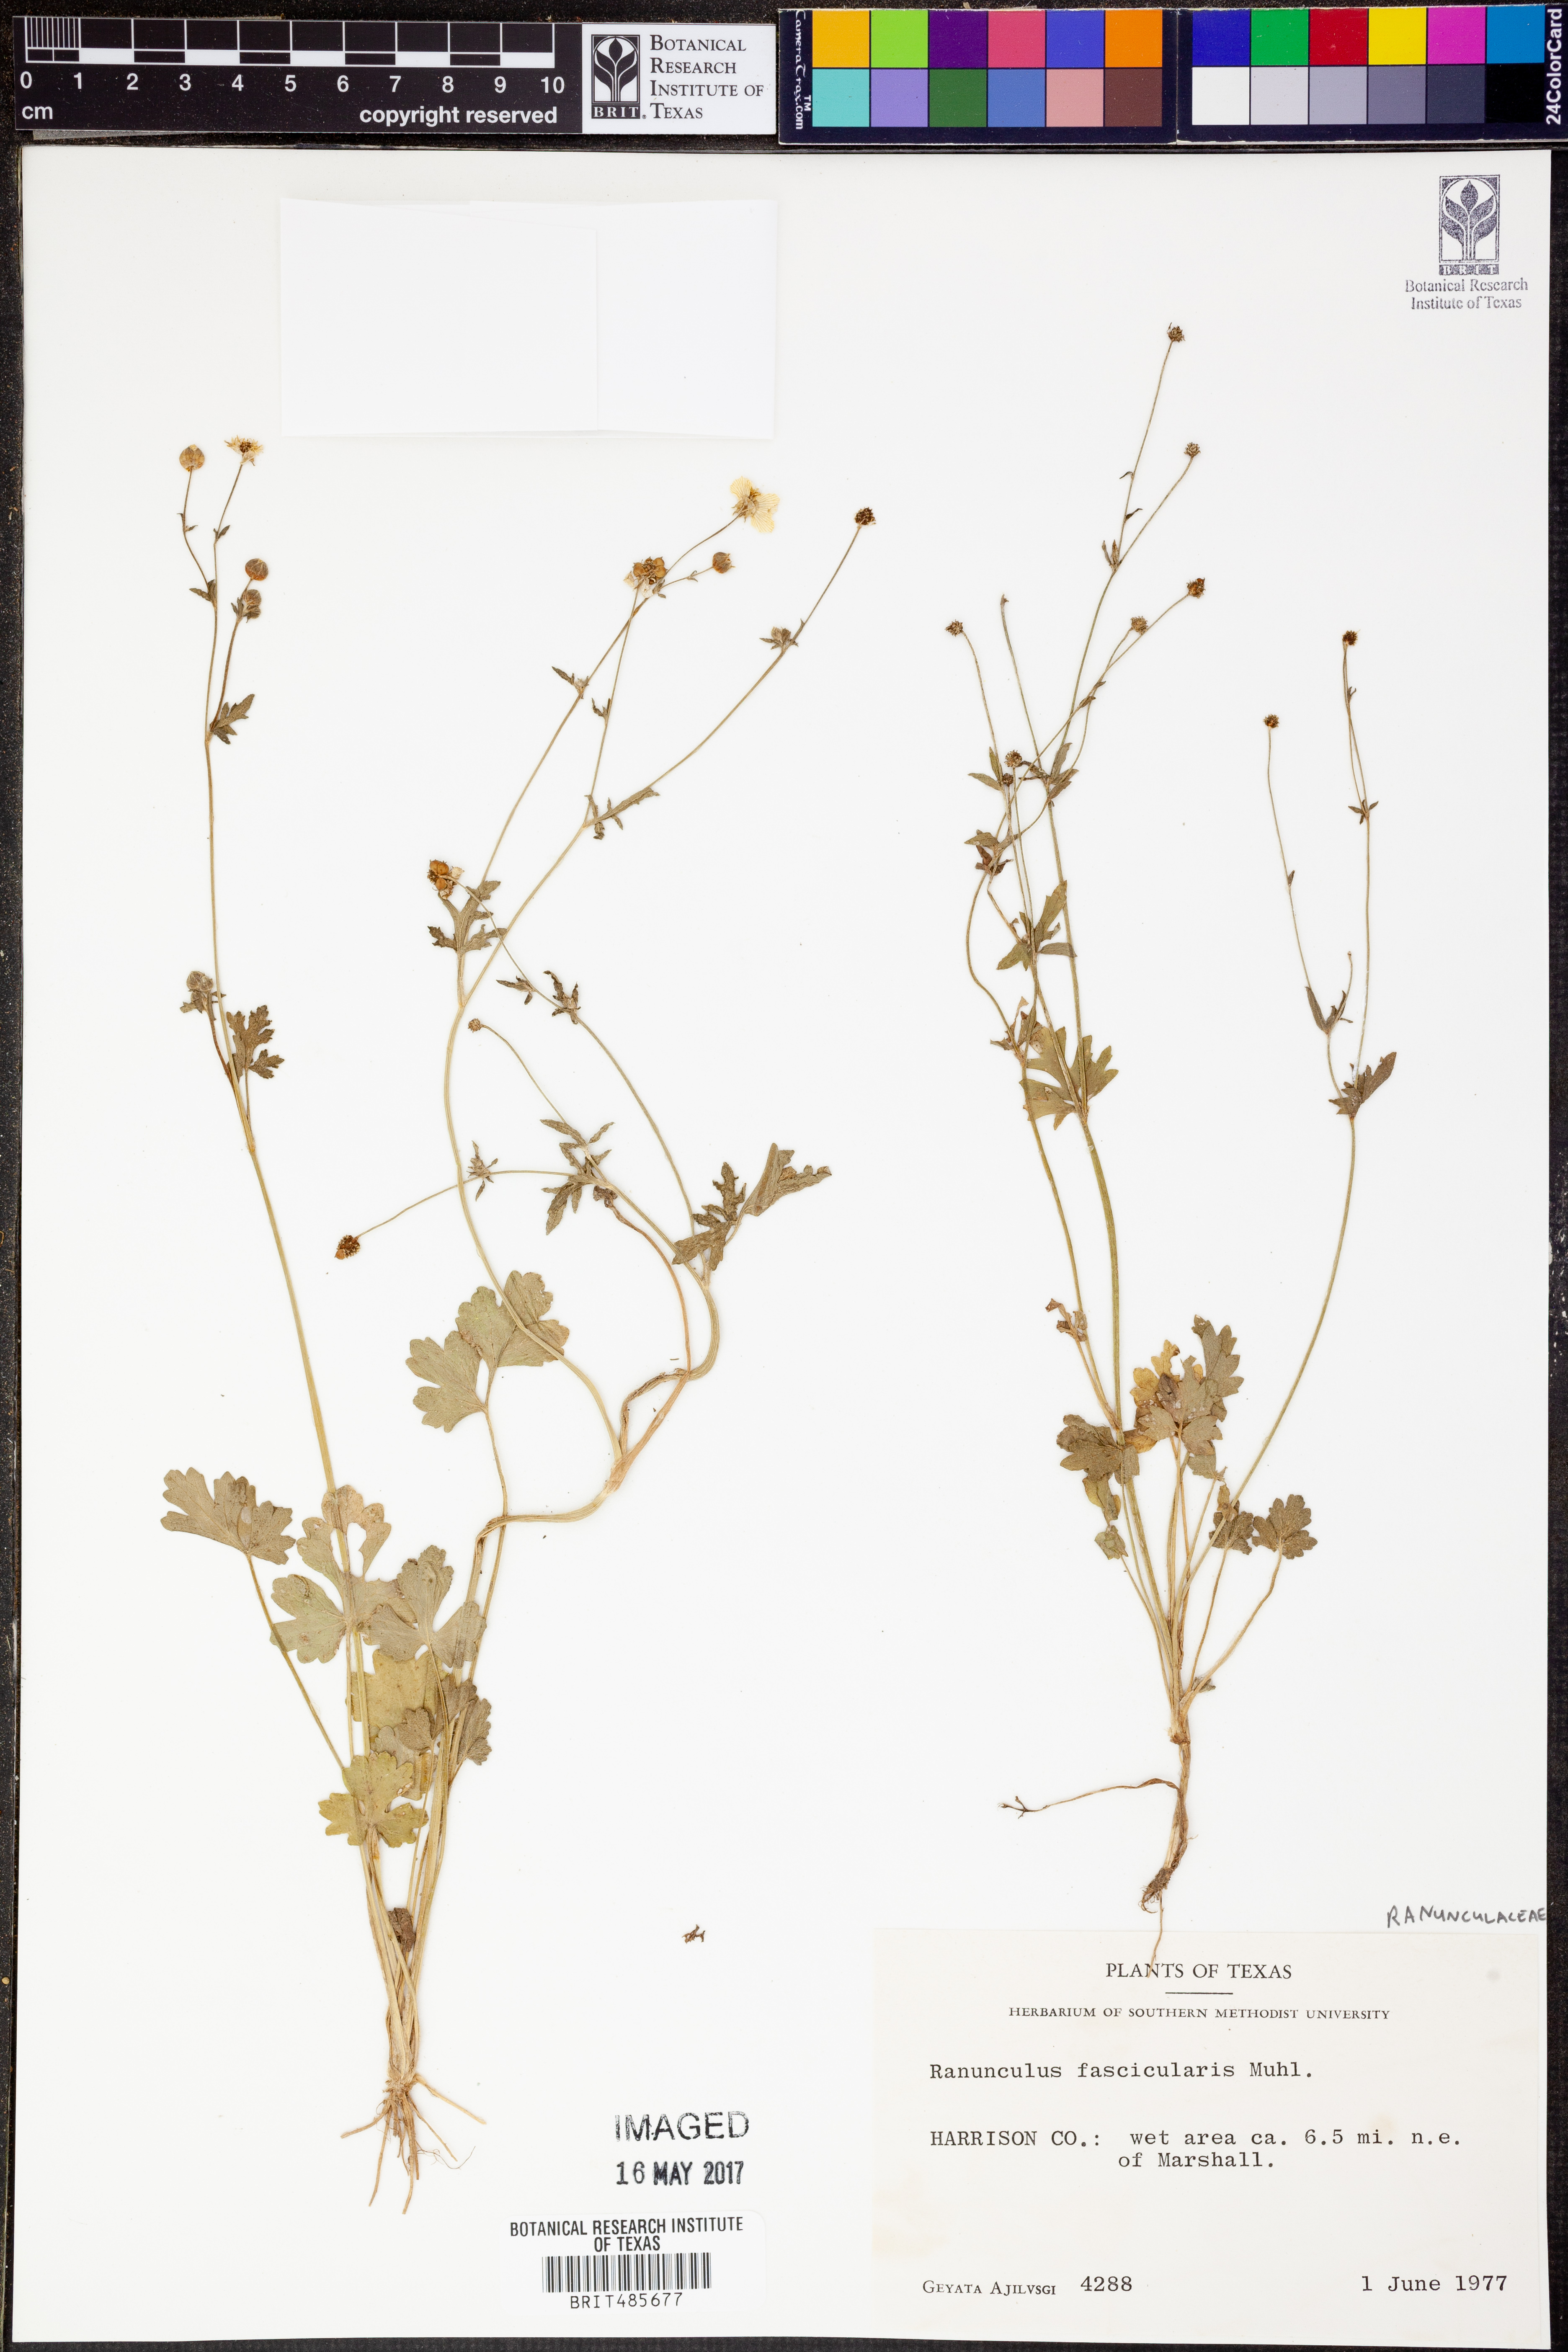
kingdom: Plantae
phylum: Tracheophyta
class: Magnoliopsida
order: Ranunculales
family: Ranunculaceae
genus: Ranunculus
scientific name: Ranunculus fascicularis
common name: Early buttercup
